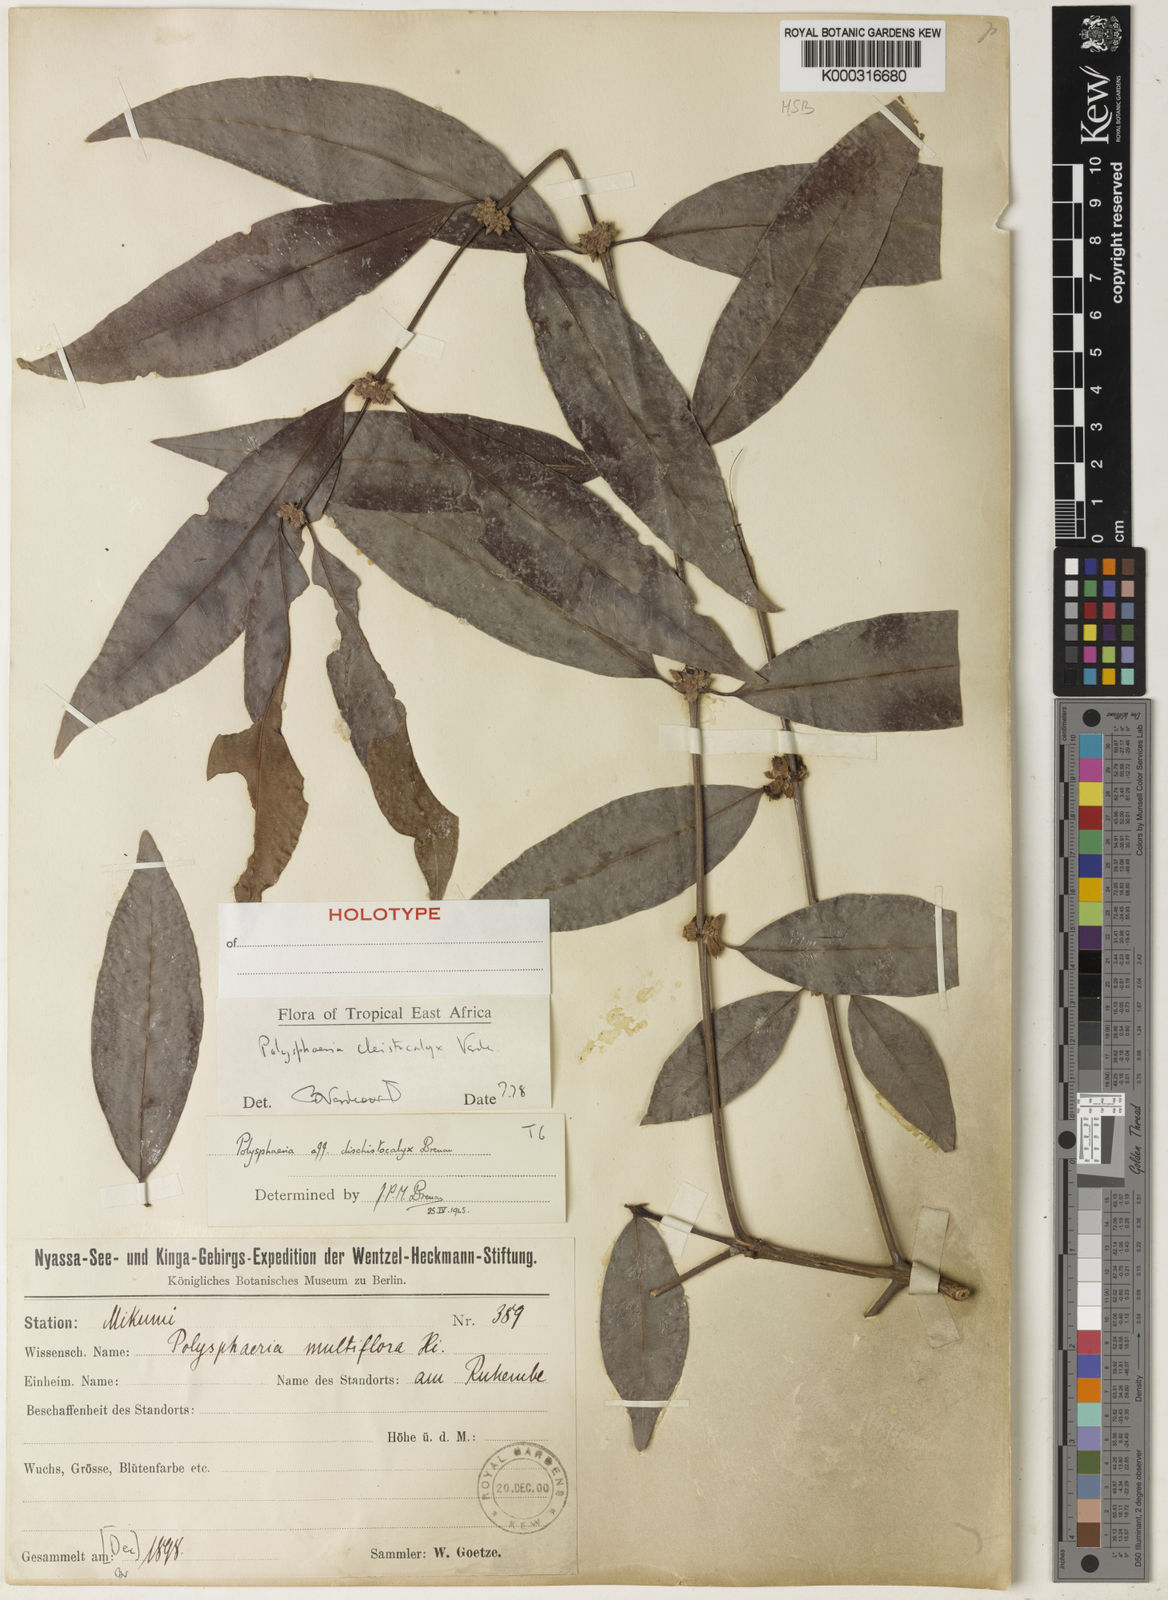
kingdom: Plantae
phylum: Tracheophyta
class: Magnoliopsida
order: Gentianales
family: Rubiaceae
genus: Polysphaeria
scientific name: Polysphaeria cleistocalyx
